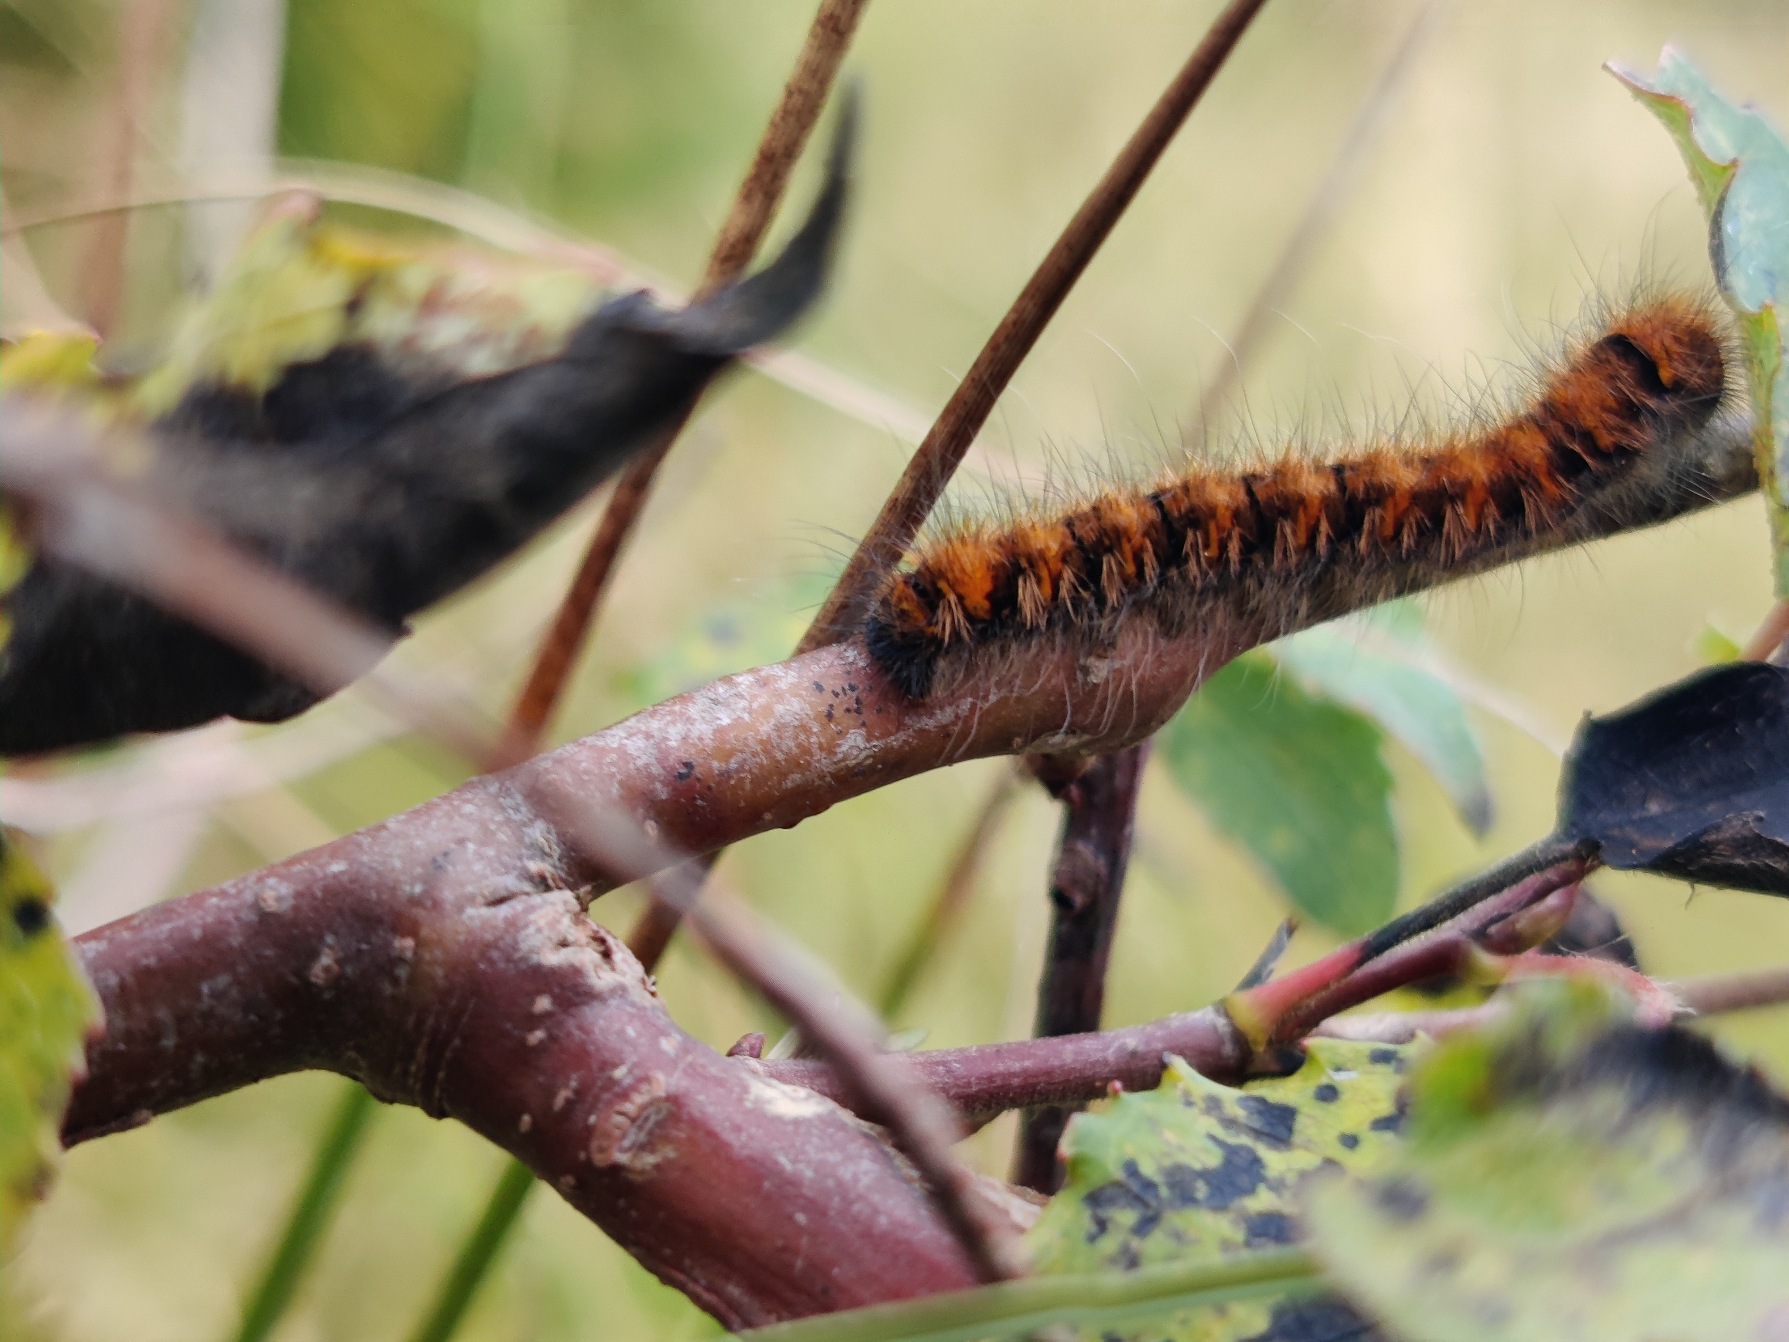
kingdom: Animalia
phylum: Arthropoda
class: Insecta
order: Lepidoptera
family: Lasiocampidae
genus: Lasiocampa
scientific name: Lasiocampa quercus
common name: Egespinder
